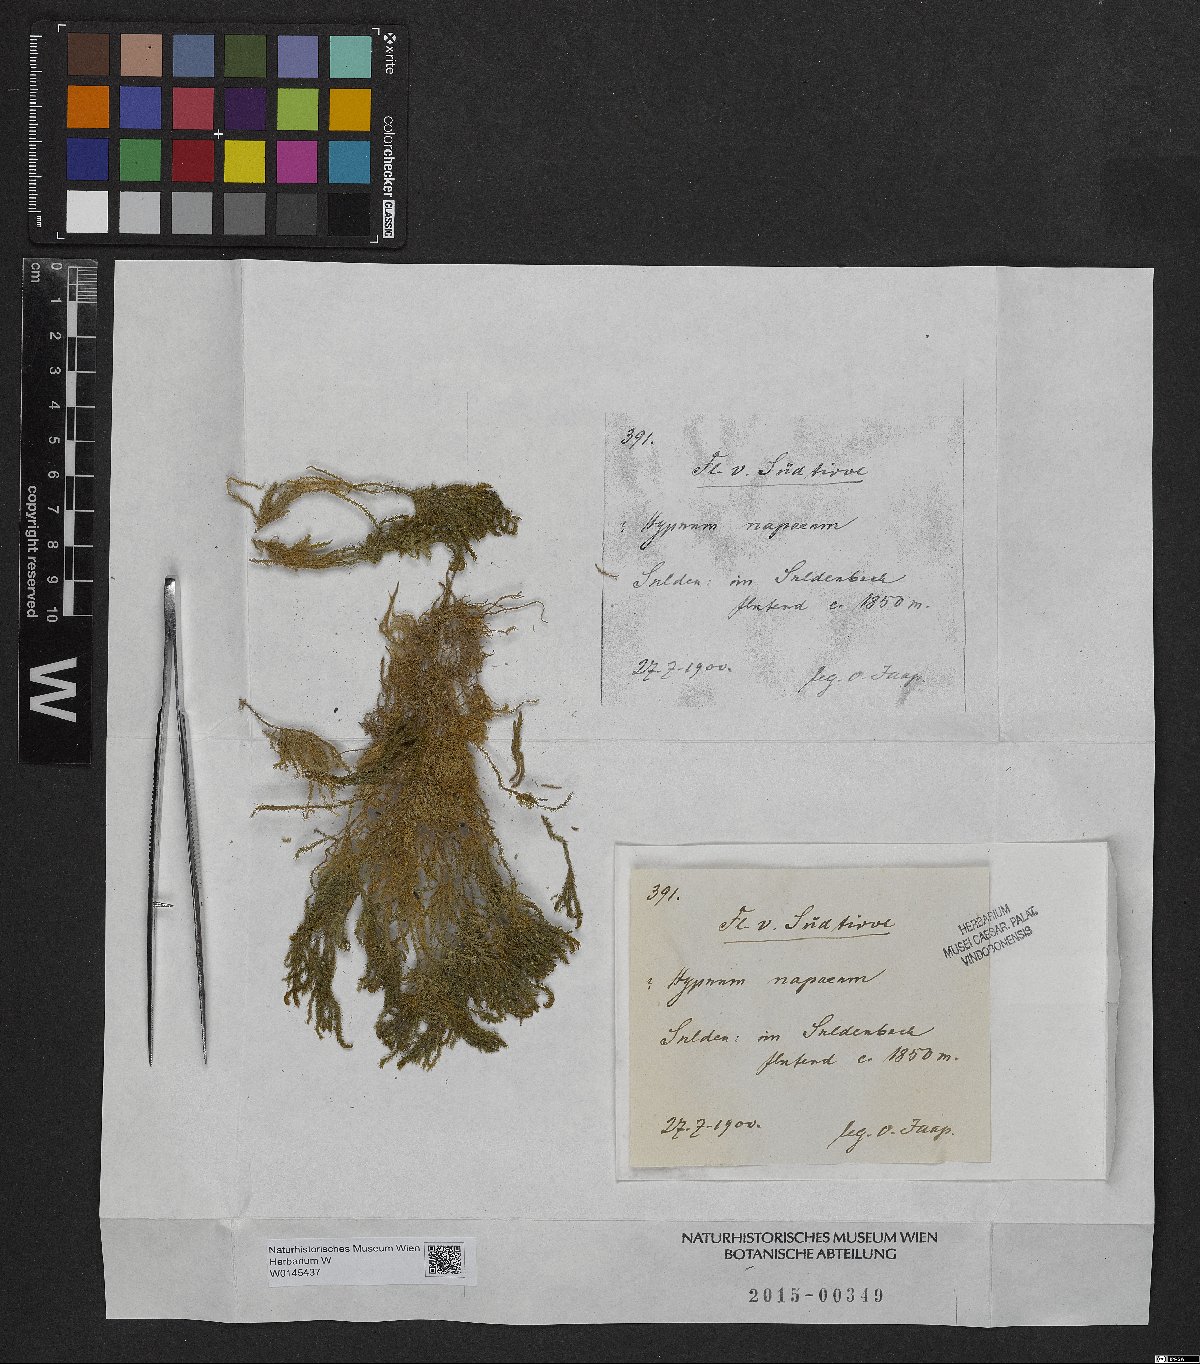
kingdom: Plantae
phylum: Bryophyta
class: Bryopsida
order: Hypnales
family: Amblystegiaceae
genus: Palustriella
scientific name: Palustriella commutata
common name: Curled hook-moss
